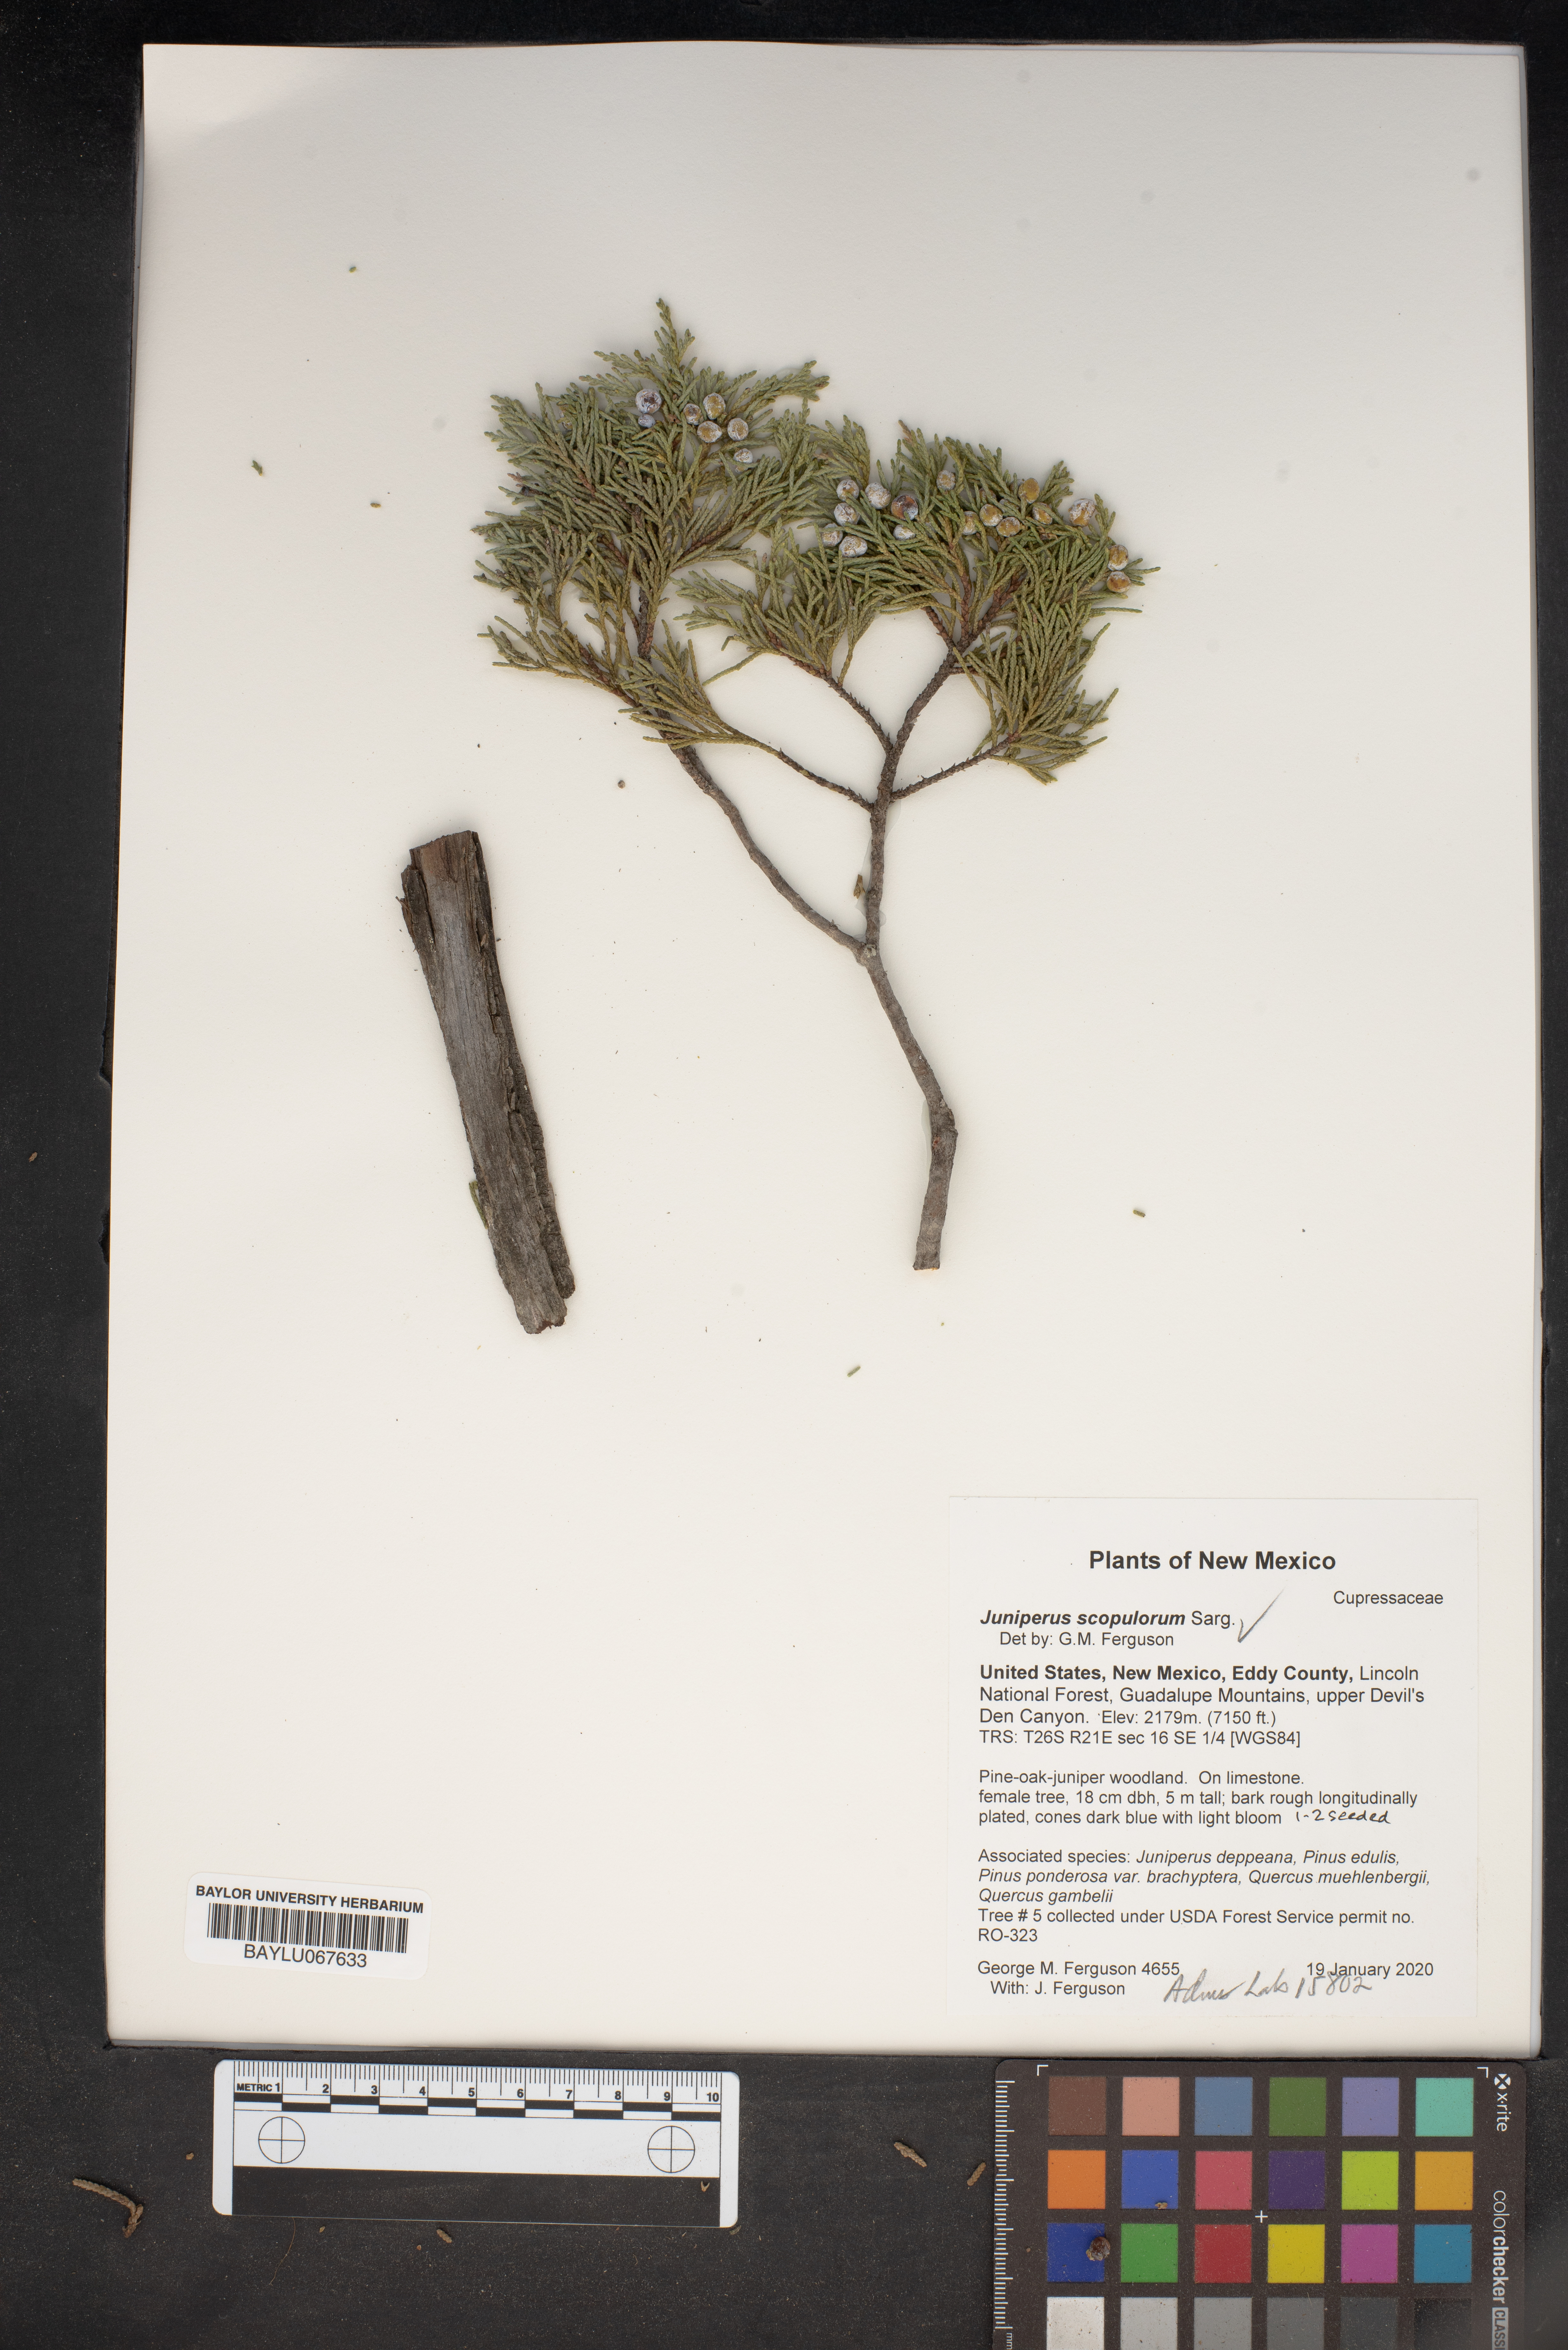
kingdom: Plantae
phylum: Tracheophyta
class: Pinopsida
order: Pinales
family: Cupressaceae
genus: Juniperus
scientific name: Juniperus scopulorum
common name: Rocky mountain juniper
